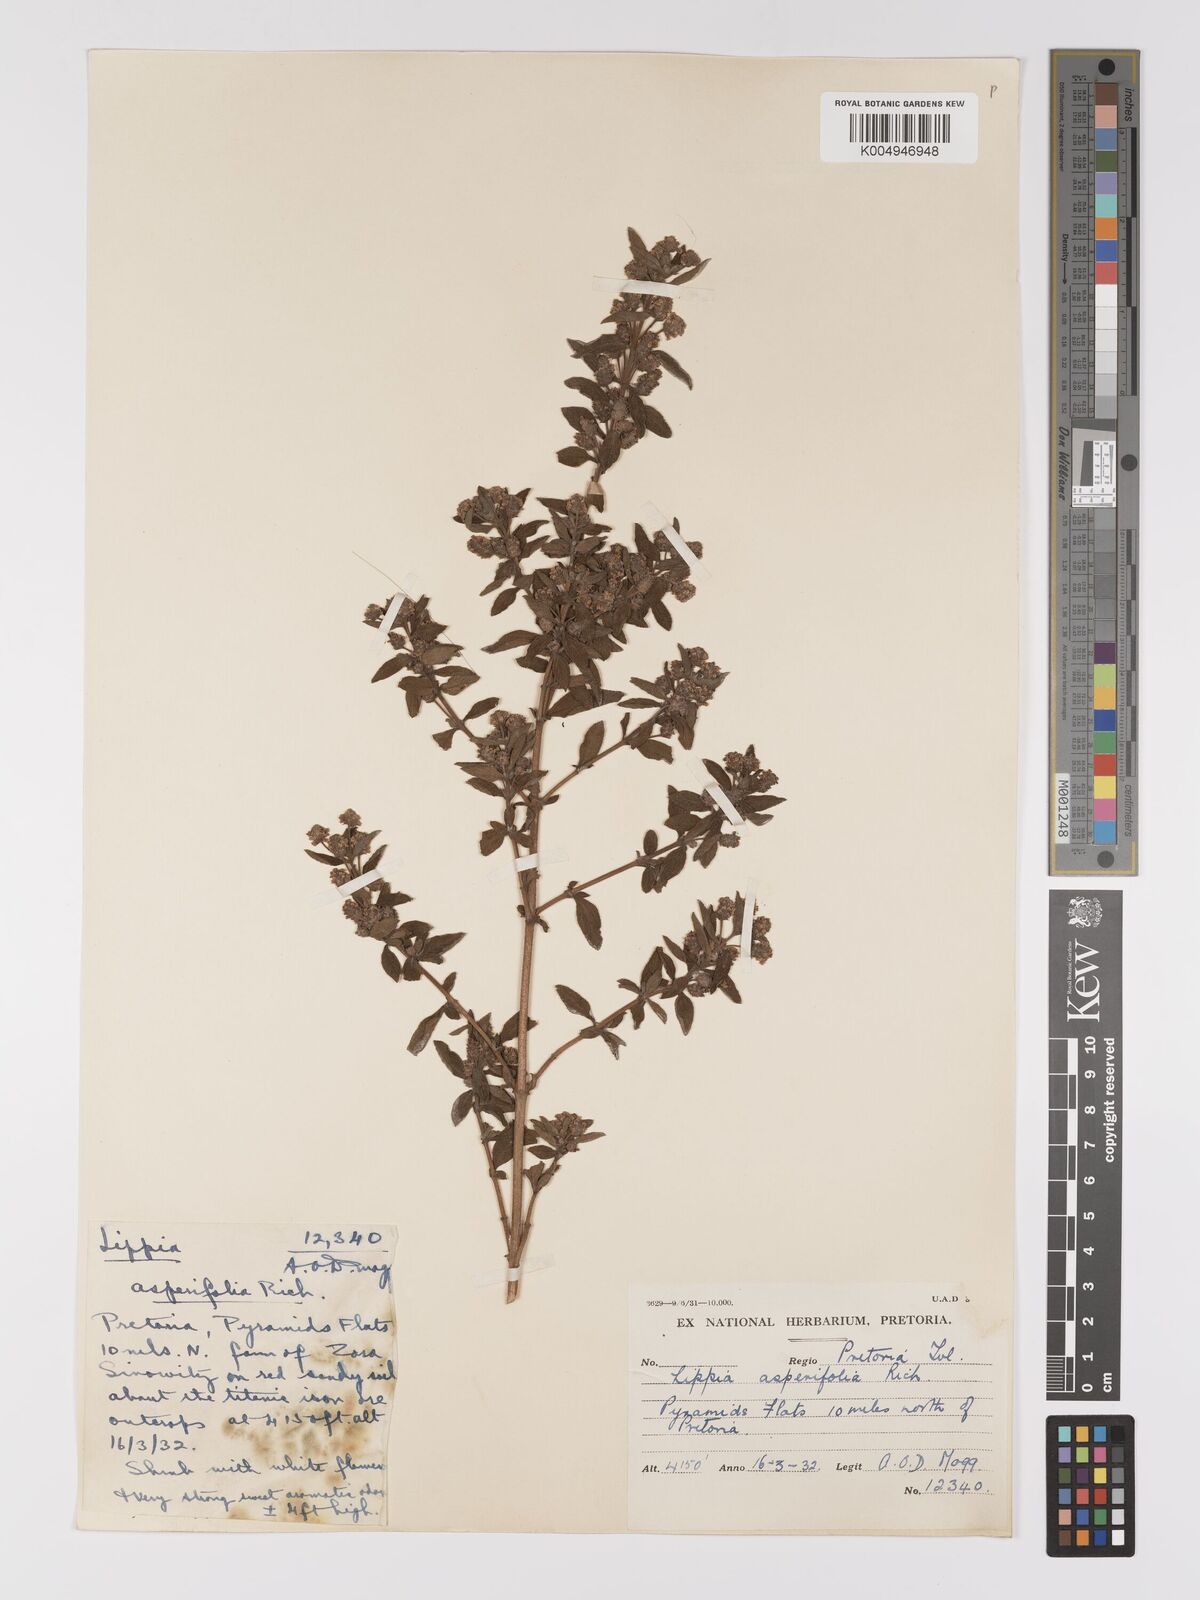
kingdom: Plantae
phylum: Tracheophyta
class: Magnoliopsida
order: Lamiales
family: Verbenaceae
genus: Lippia
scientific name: Lippia
